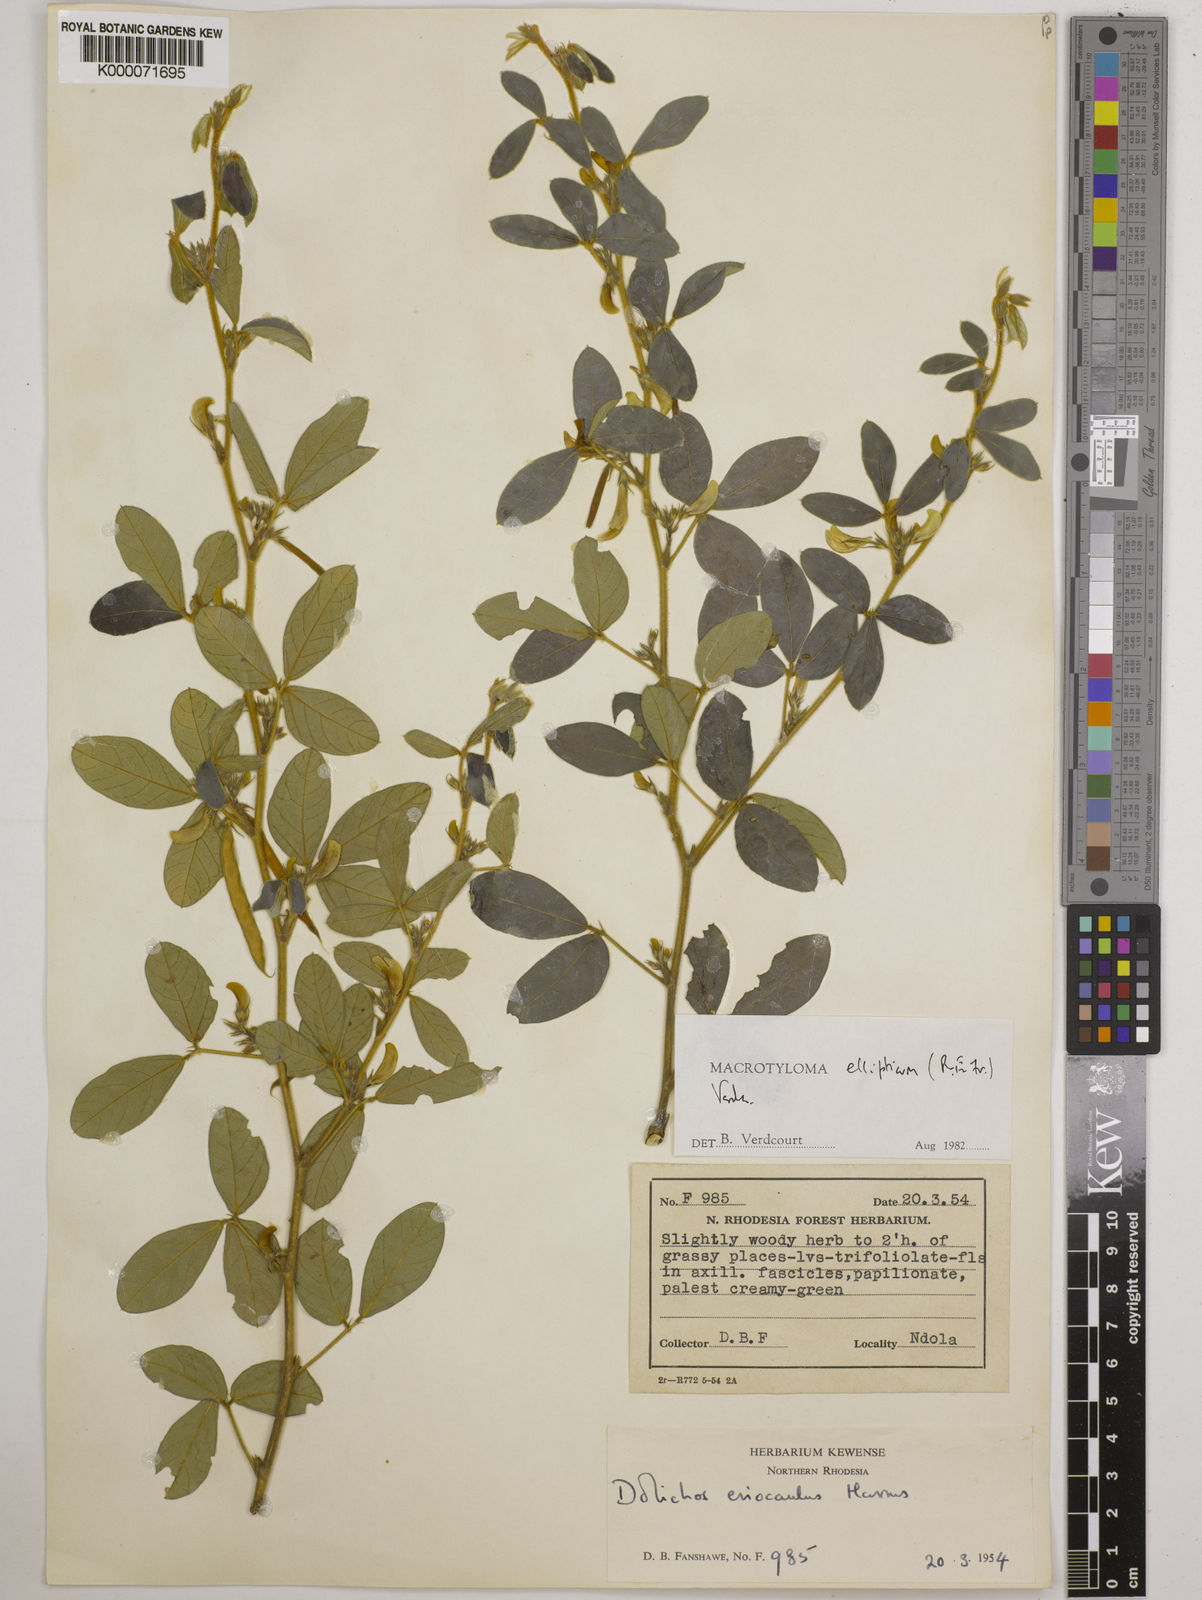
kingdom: Plantae
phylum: Tracheophyta
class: Magnoliopsida
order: Fabales
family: Fabaceae
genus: Macrotyloma
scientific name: Macrotyloma ellipticum
